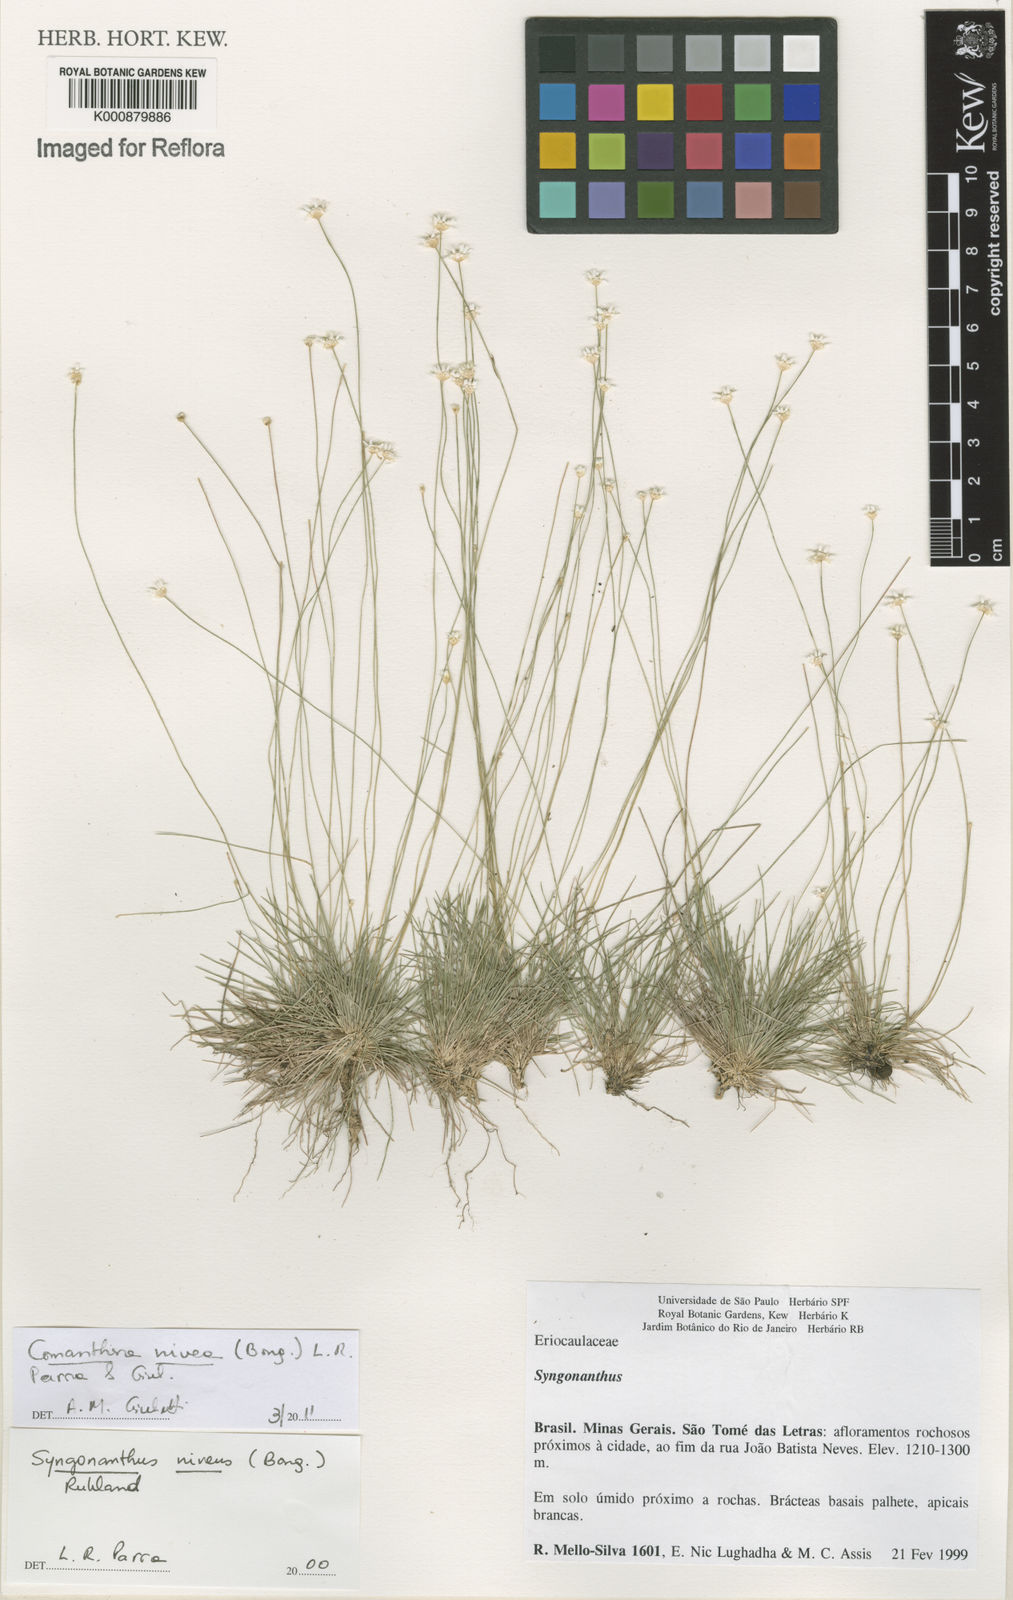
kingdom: Plantae
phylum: Tracheophyta
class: Liliopsida
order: Poales
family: Eriocaulaceae
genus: Comanthera
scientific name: Comanthera nivea
